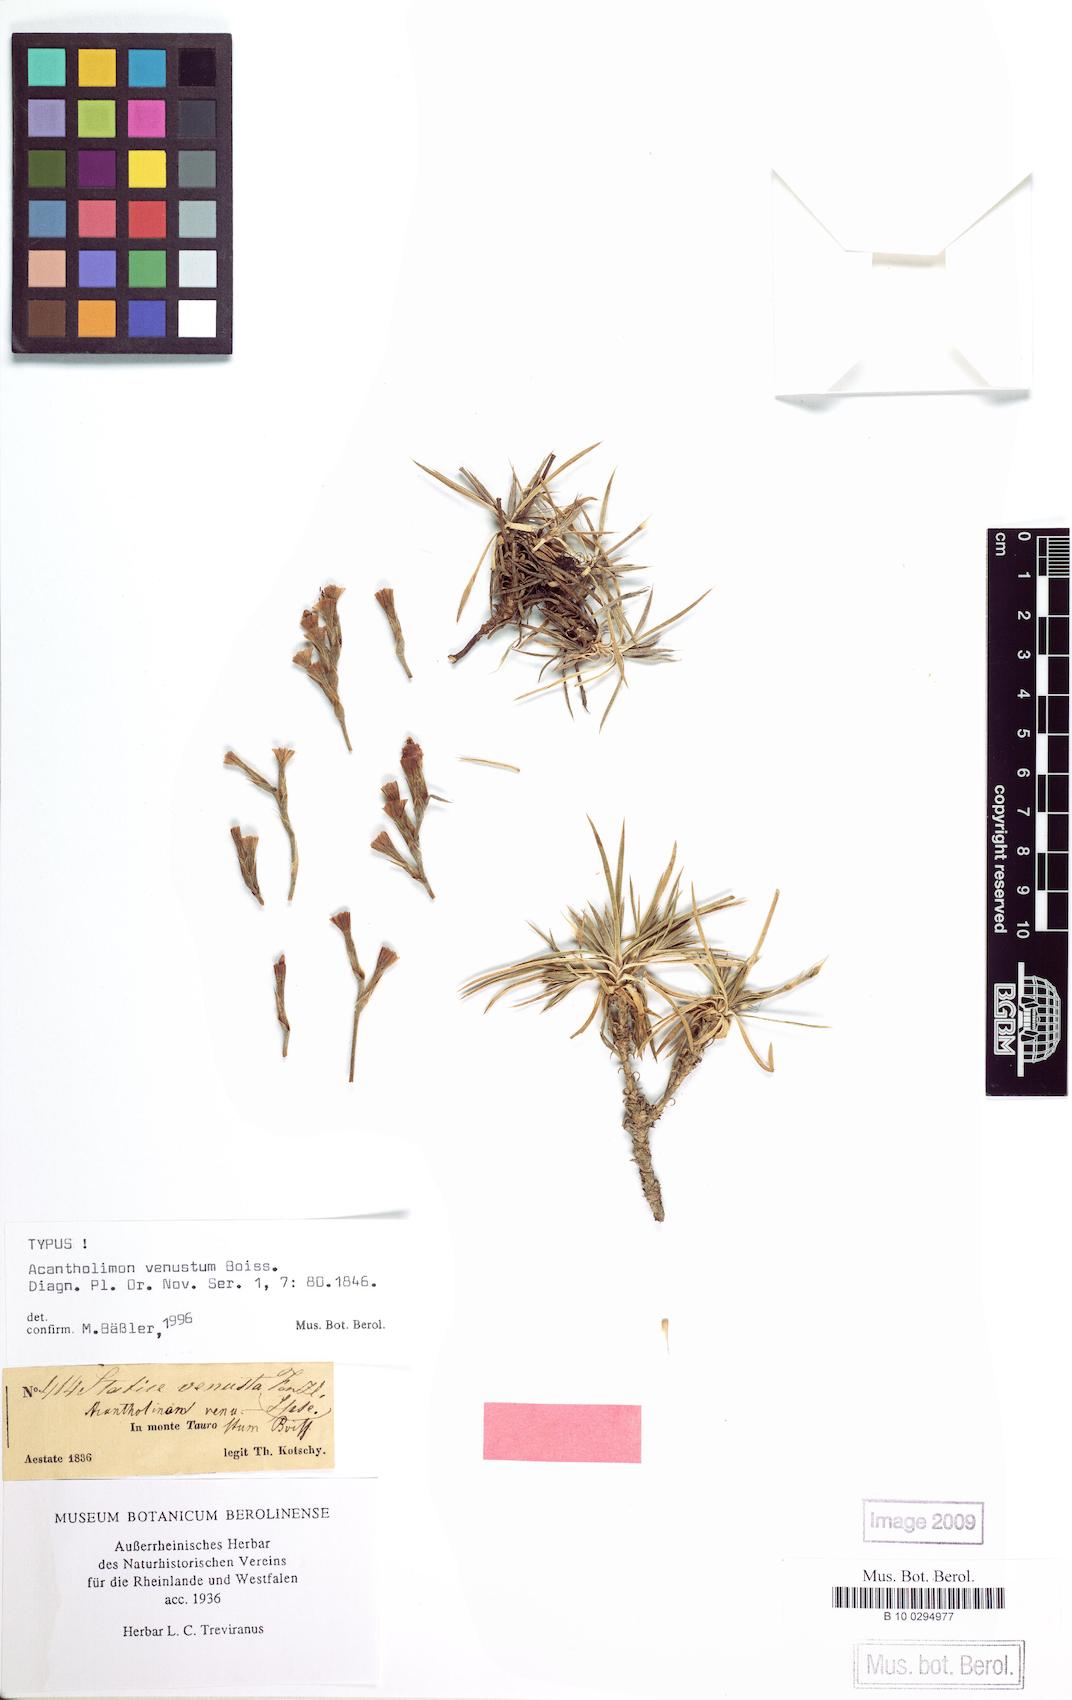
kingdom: Plantae
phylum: Tracheophyta
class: Magnoliopsida
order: Caryophyllales
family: Plumbaginaceae
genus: Acantholimon
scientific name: Acantholimon venustum
